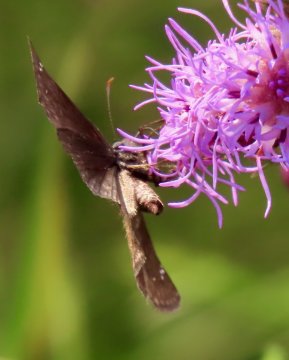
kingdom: Animalia
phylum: Arthropoda
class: Insecta
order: Lepidoptera
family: Hesperiidae
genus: Gesta
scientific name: Gesta
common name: Wild Indigo Duskywing
